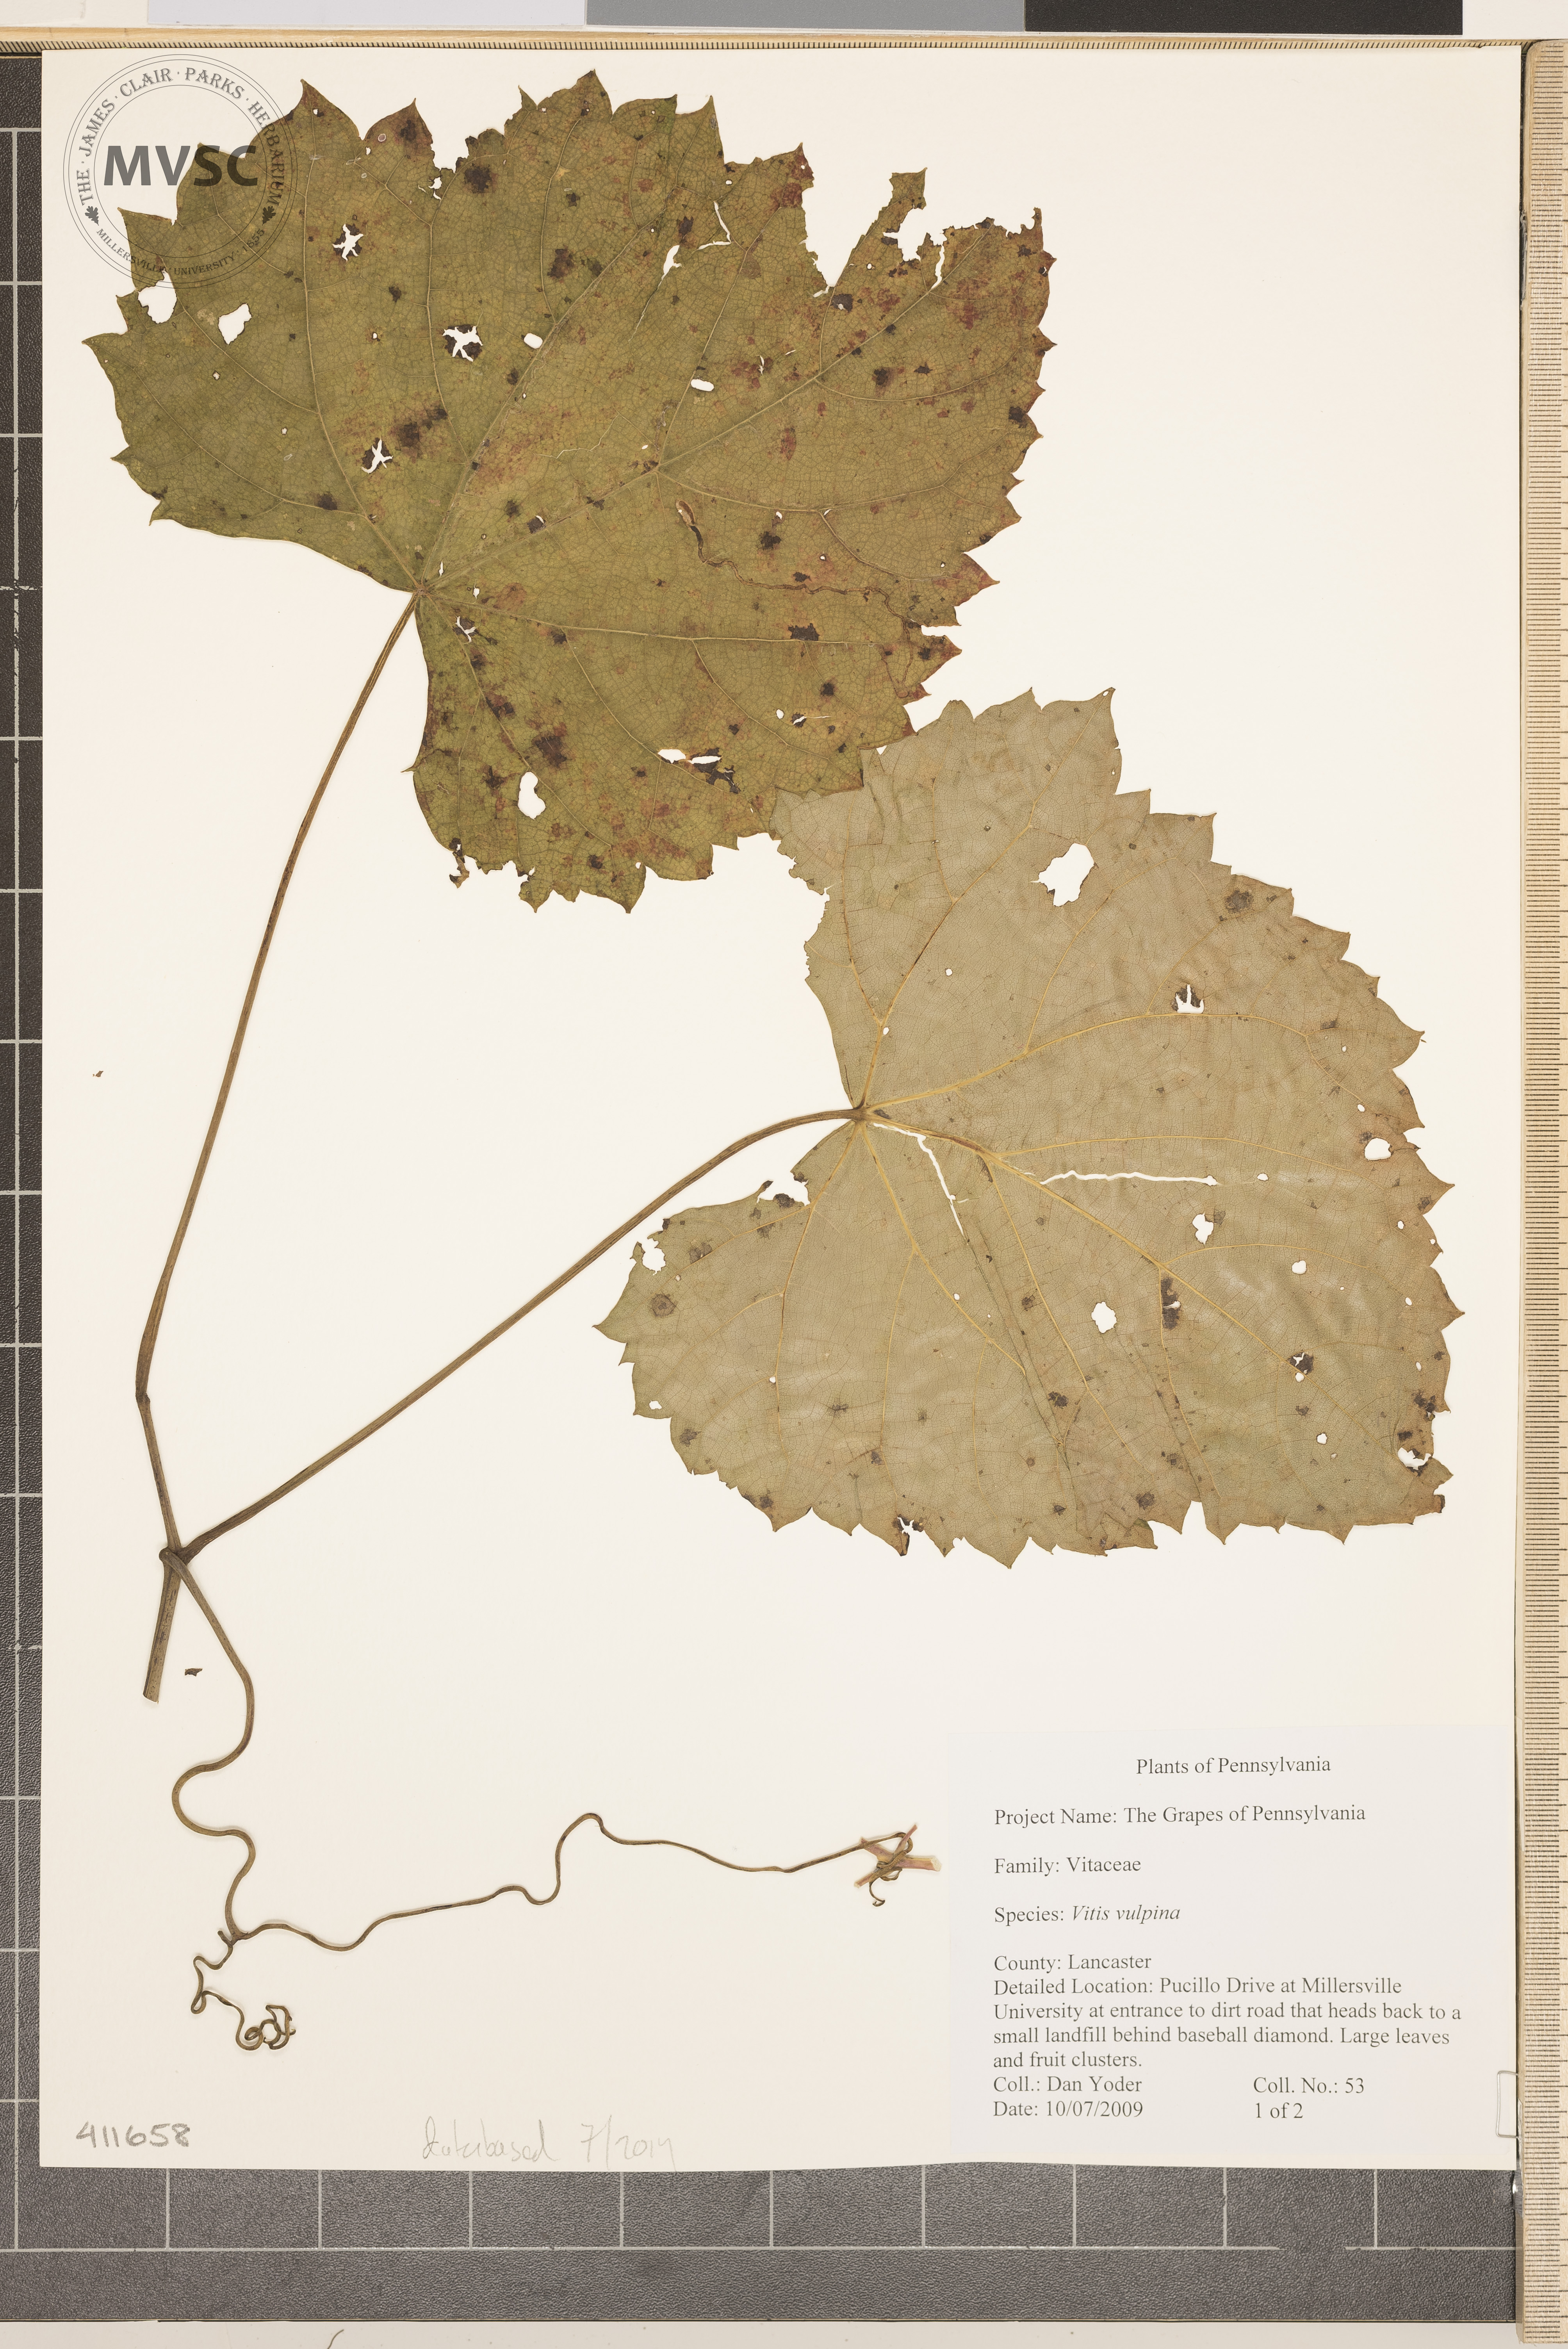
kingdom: Plantae
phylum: Tracheophyta
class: Magnoliopsida
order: Vitales
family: Vitaceae
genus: Vitis
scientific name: Vitis vulpina
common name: Frost Grape
